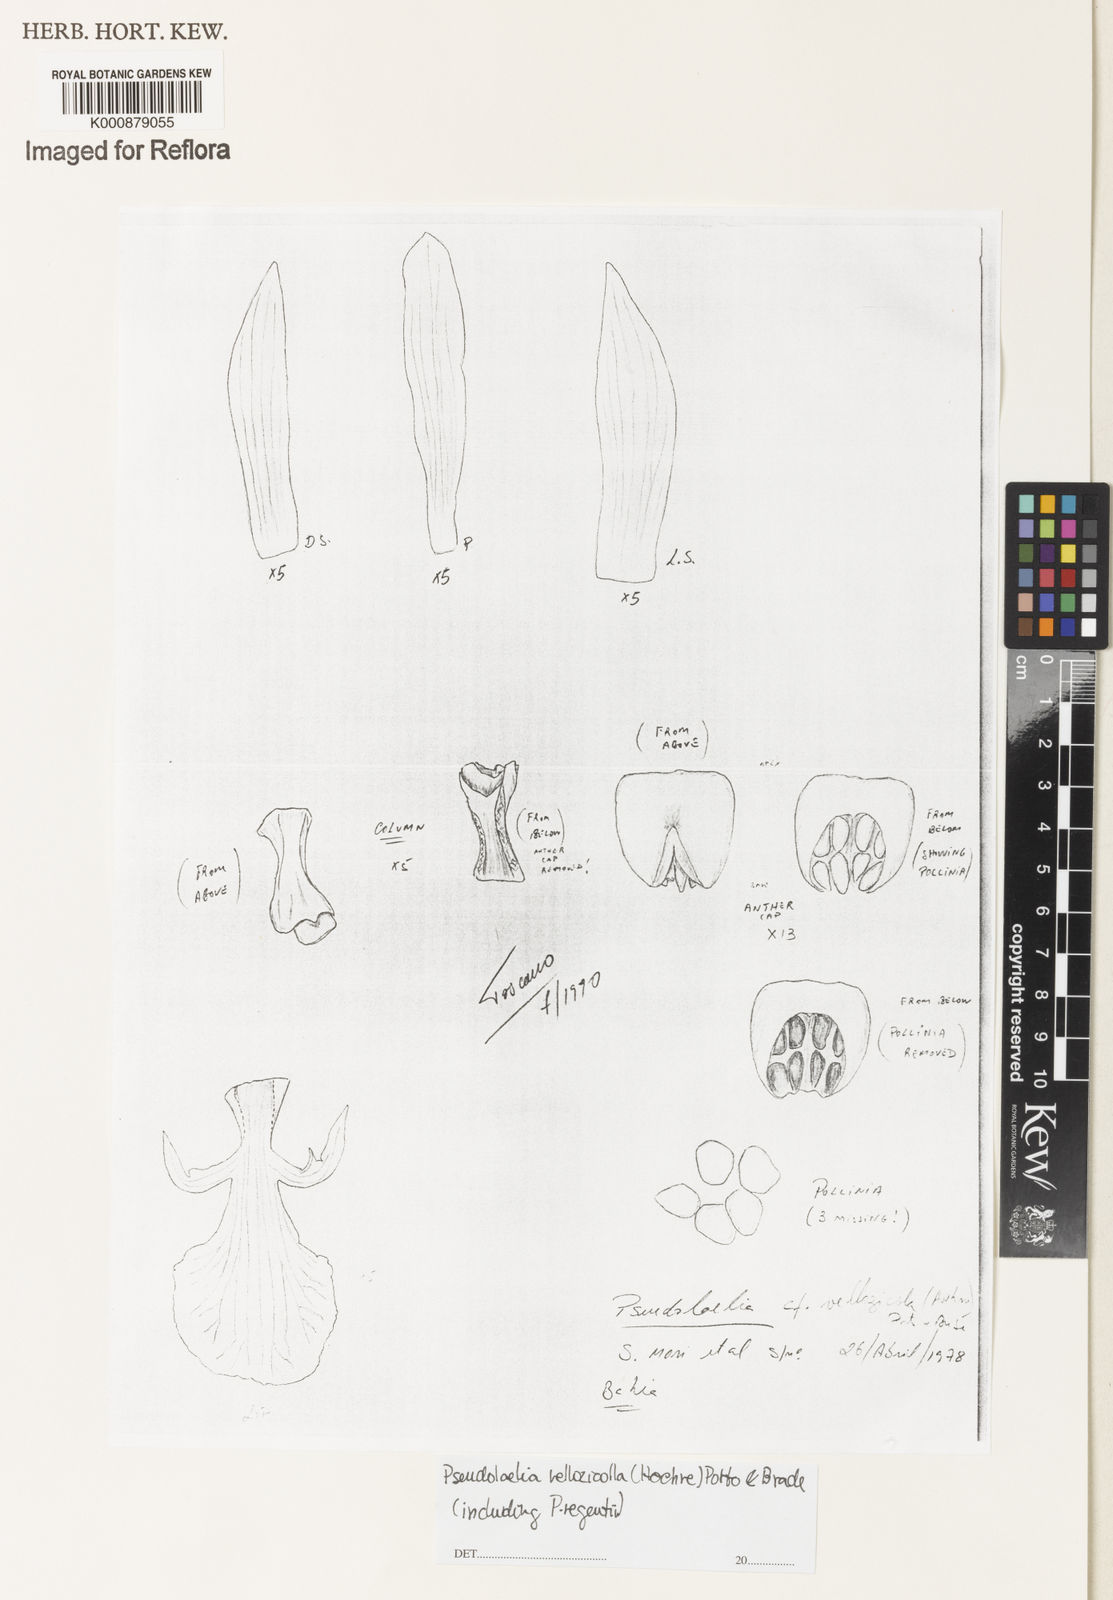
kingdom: Plantae
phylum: Tracheophyta
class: Liliopsida
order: Asparagales
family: Orchidaceae
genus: Pseudolaelia
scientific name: Pseudolaelia vellozicola
